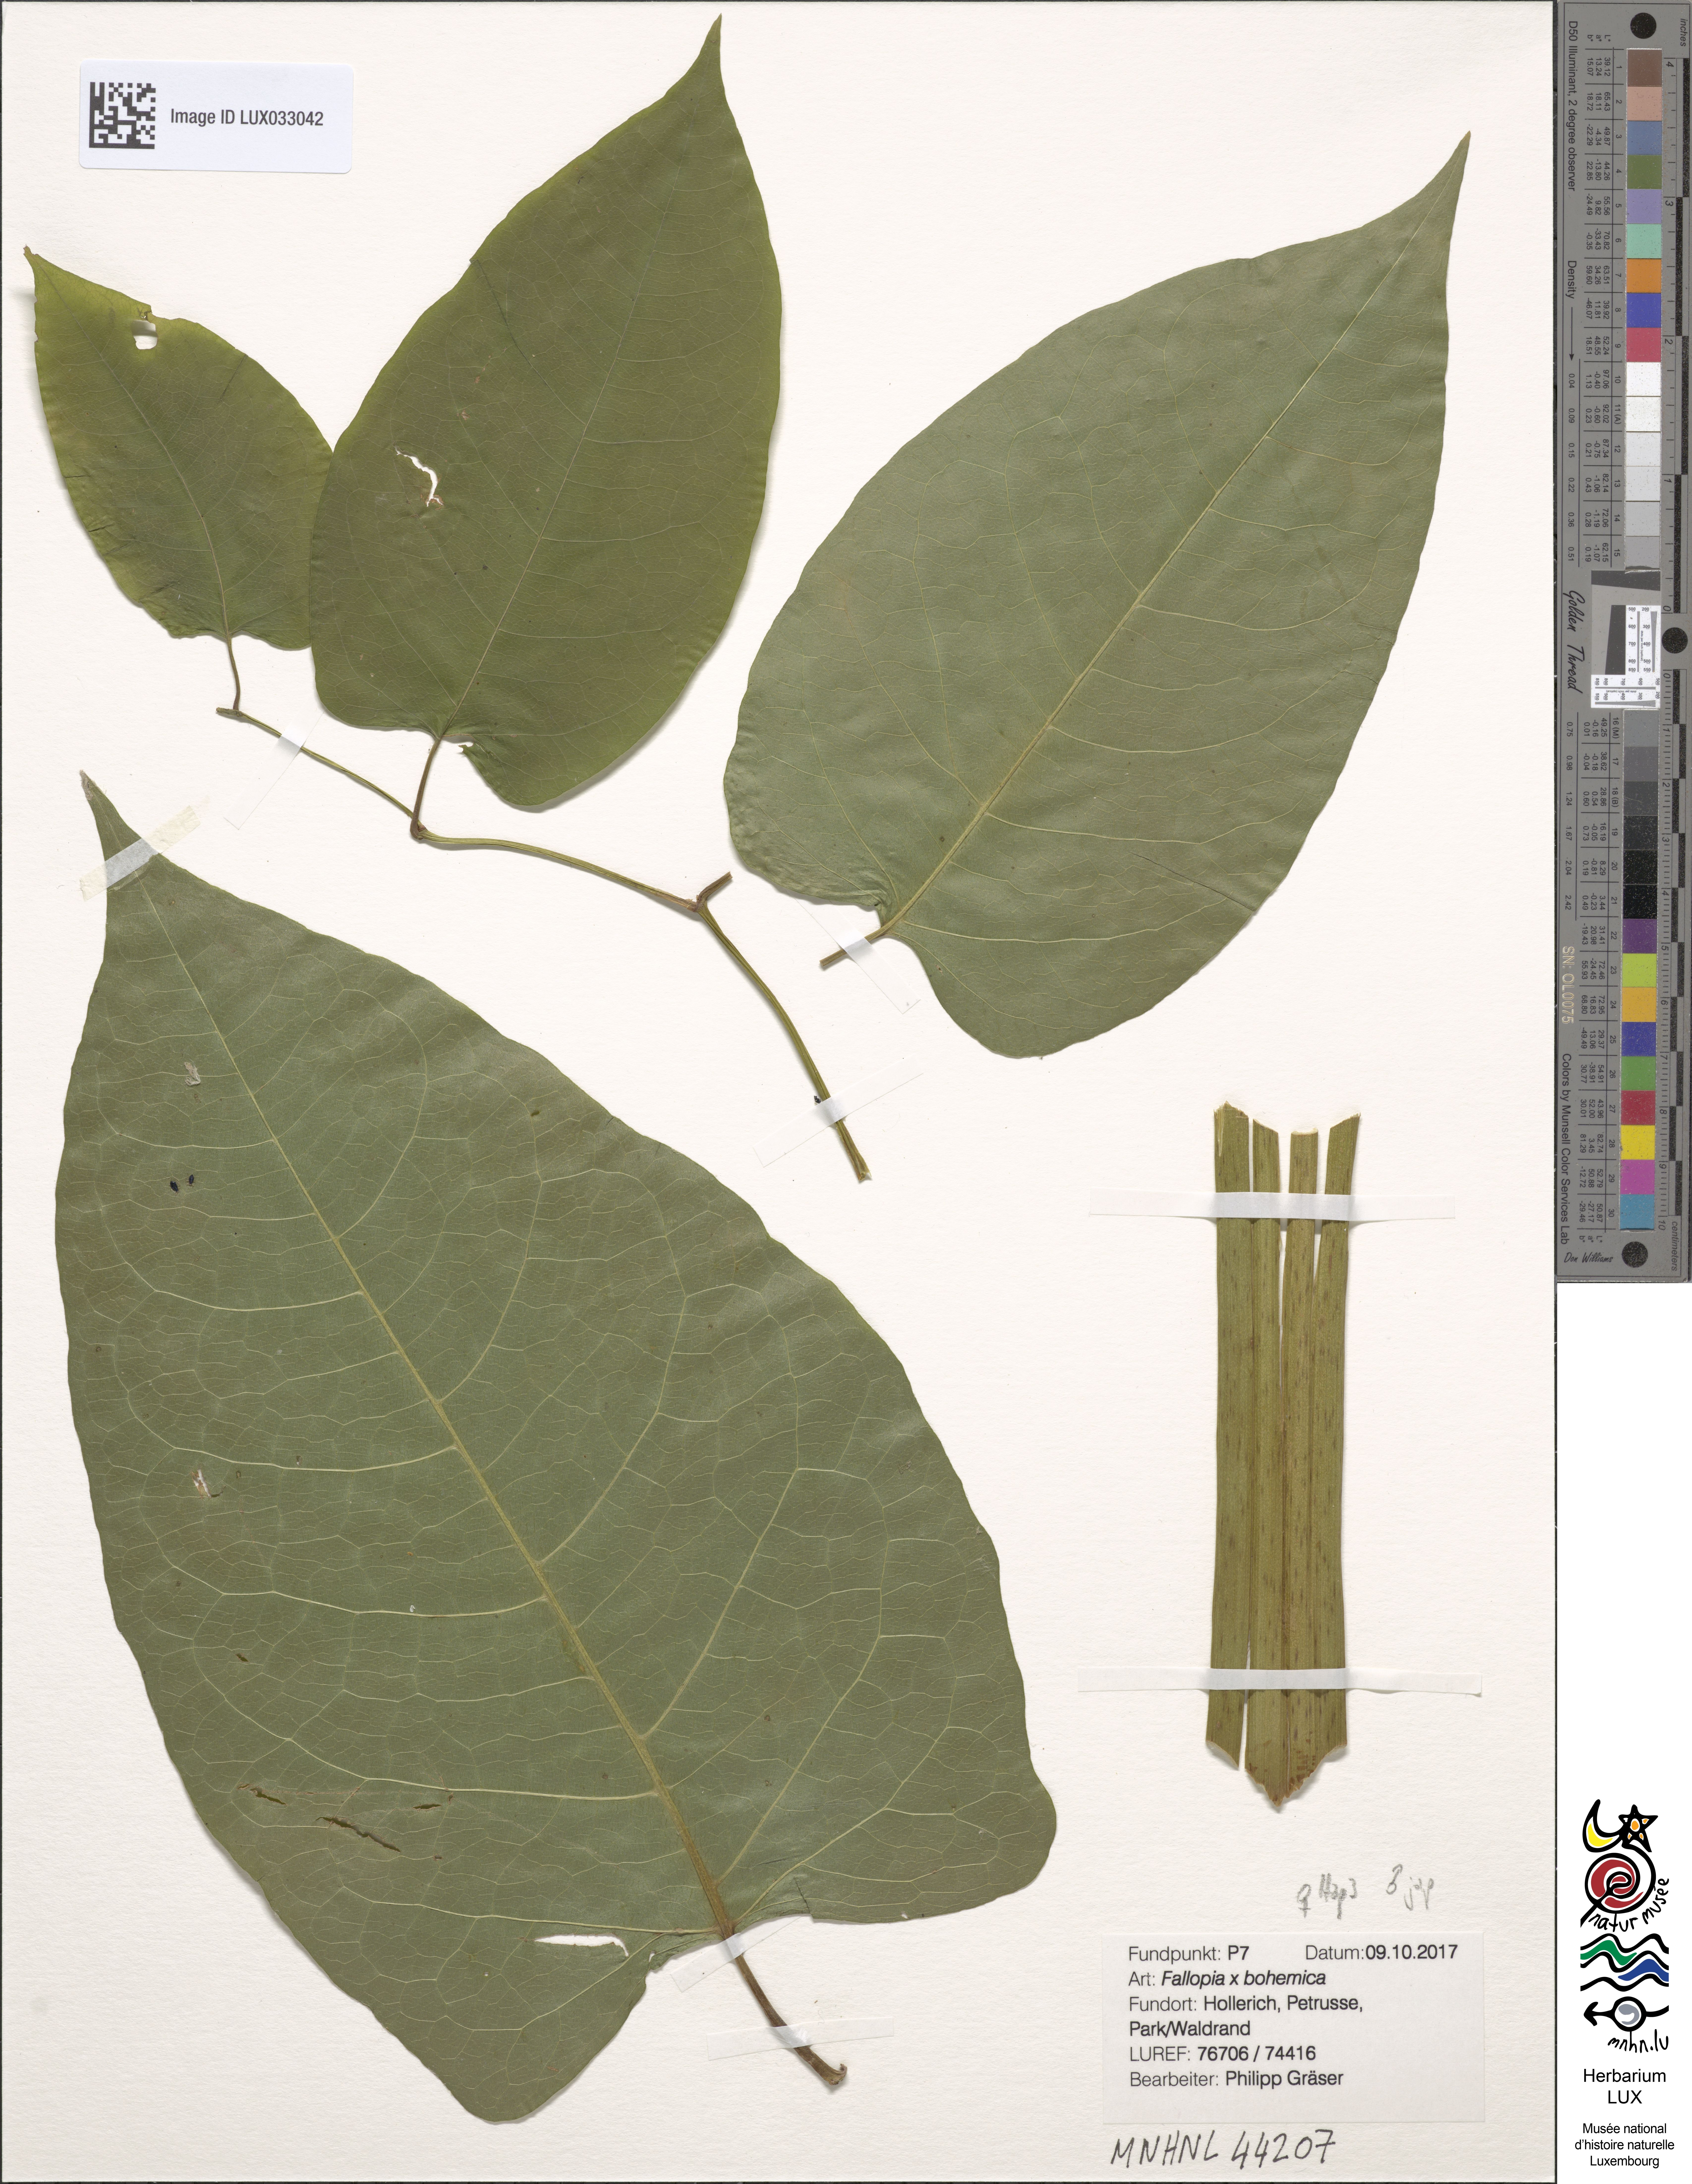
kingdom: Plantae
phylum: Tracheophyta
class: Magnoliopsida
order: Caryophyllales
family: Polygonaceae
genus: Reynoutria
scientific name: Reynoutria bohemica
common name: Bohemian knotweed
